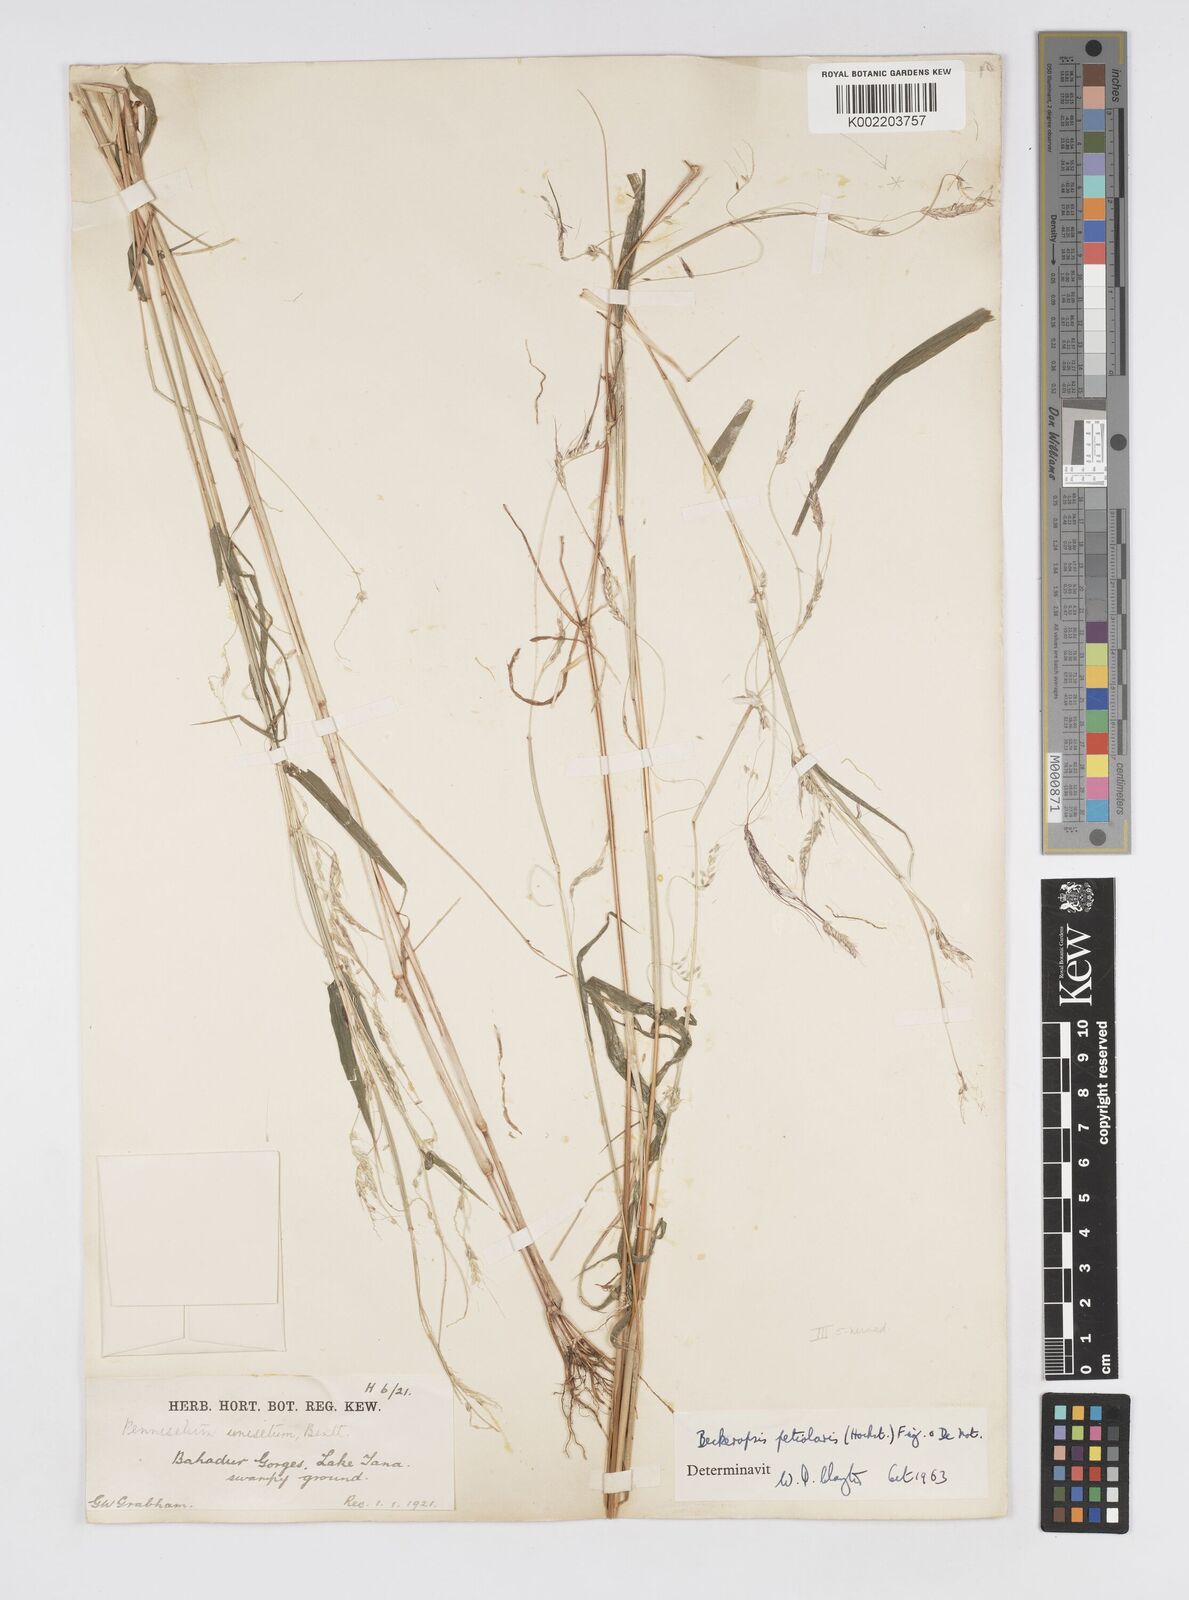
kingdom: Plantae
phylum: Tracheophyta
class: Liliopsida
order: Poales
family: Poaceae
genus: Cenchrus
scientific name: Cenchrus petiolaris
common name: Grass
